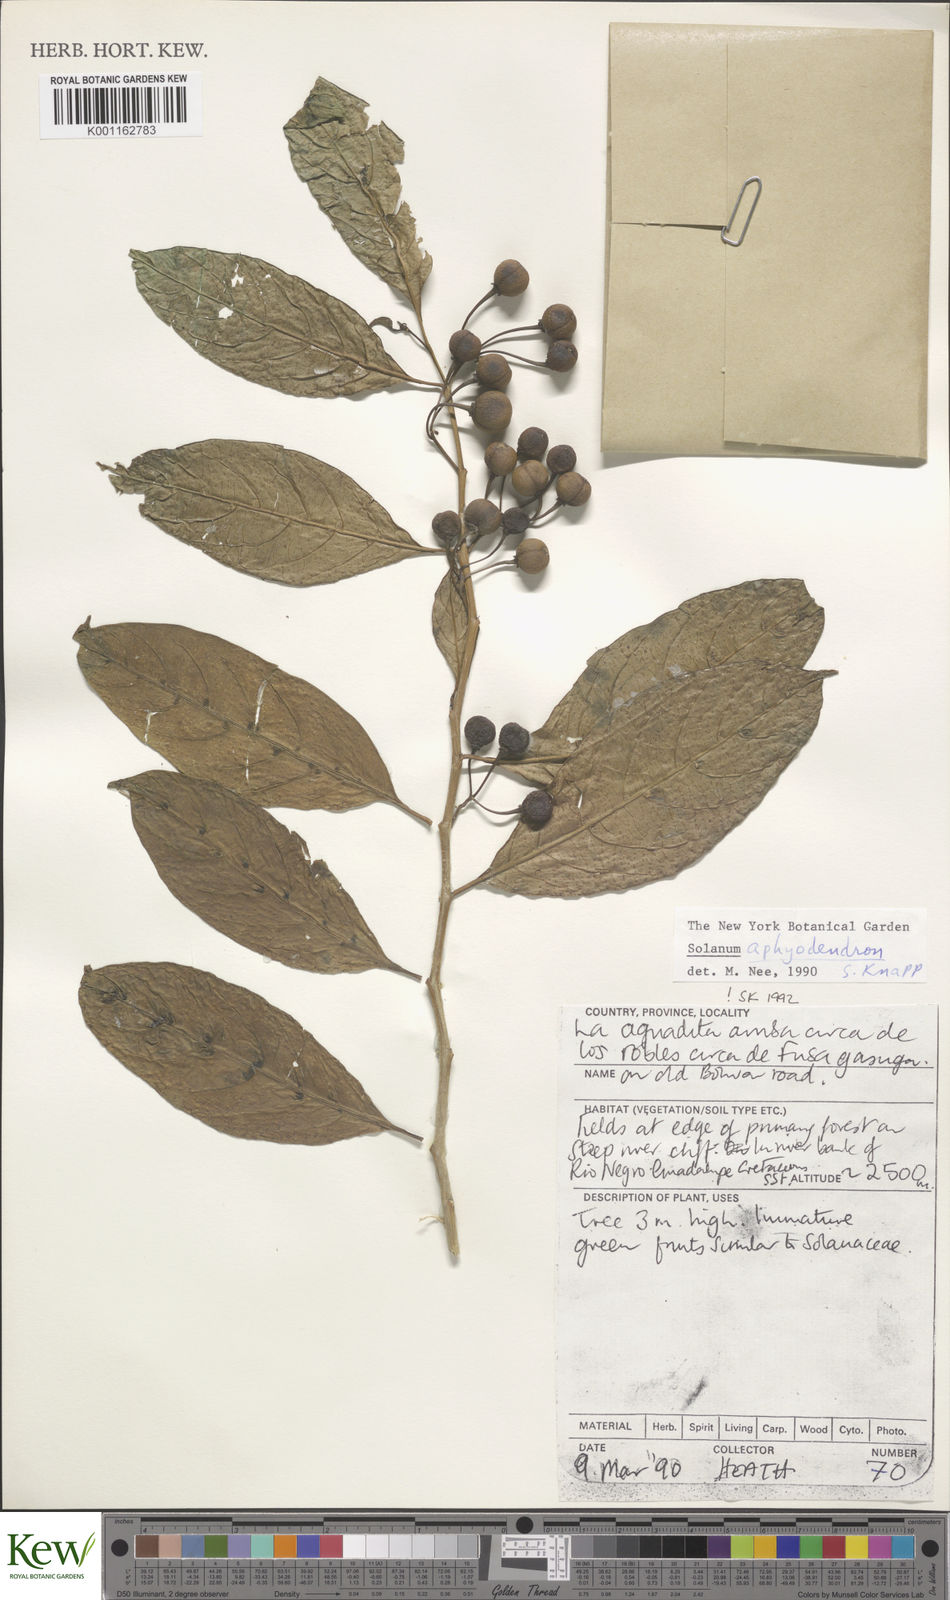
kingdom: Plantae
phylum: Tracheophyta
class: Magnoliopsida
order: Solanales
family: Solanaceae
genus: Solanum
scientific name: Solanum aphyodendron
